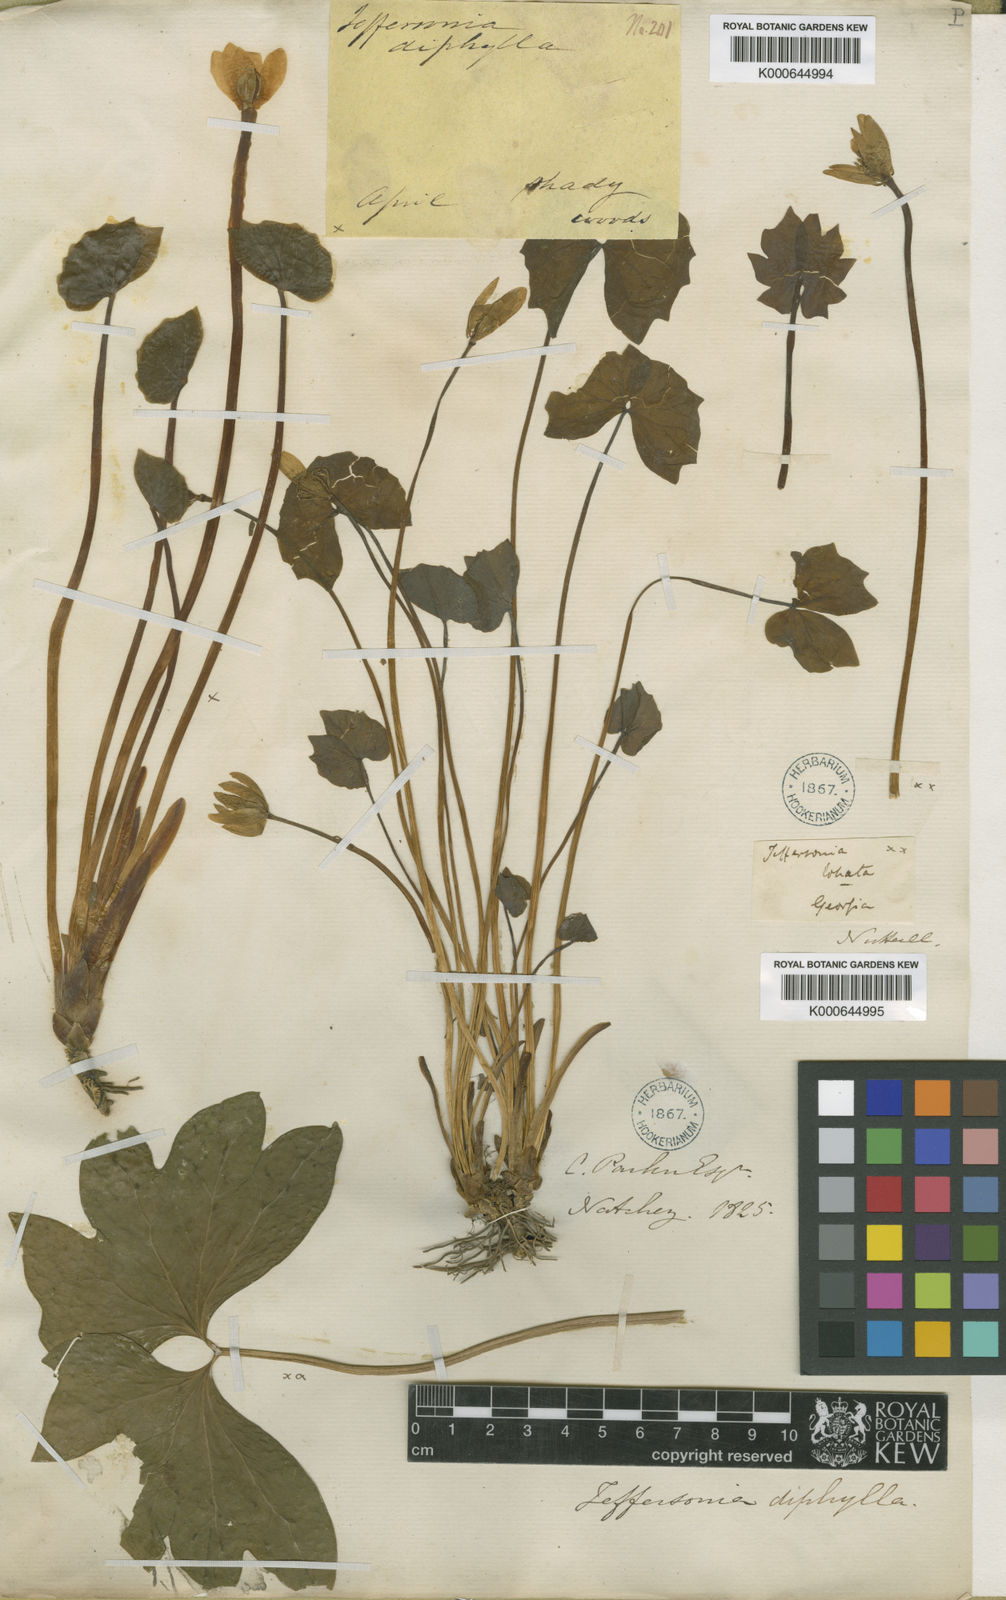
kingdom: Plantae
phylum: Tracheophyta
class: Magnoliopsida
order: Ranunculales
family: Berberidaceae
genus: Jeffersonia
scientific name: Jeffersonia diphylla
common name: Rheumatism-root
